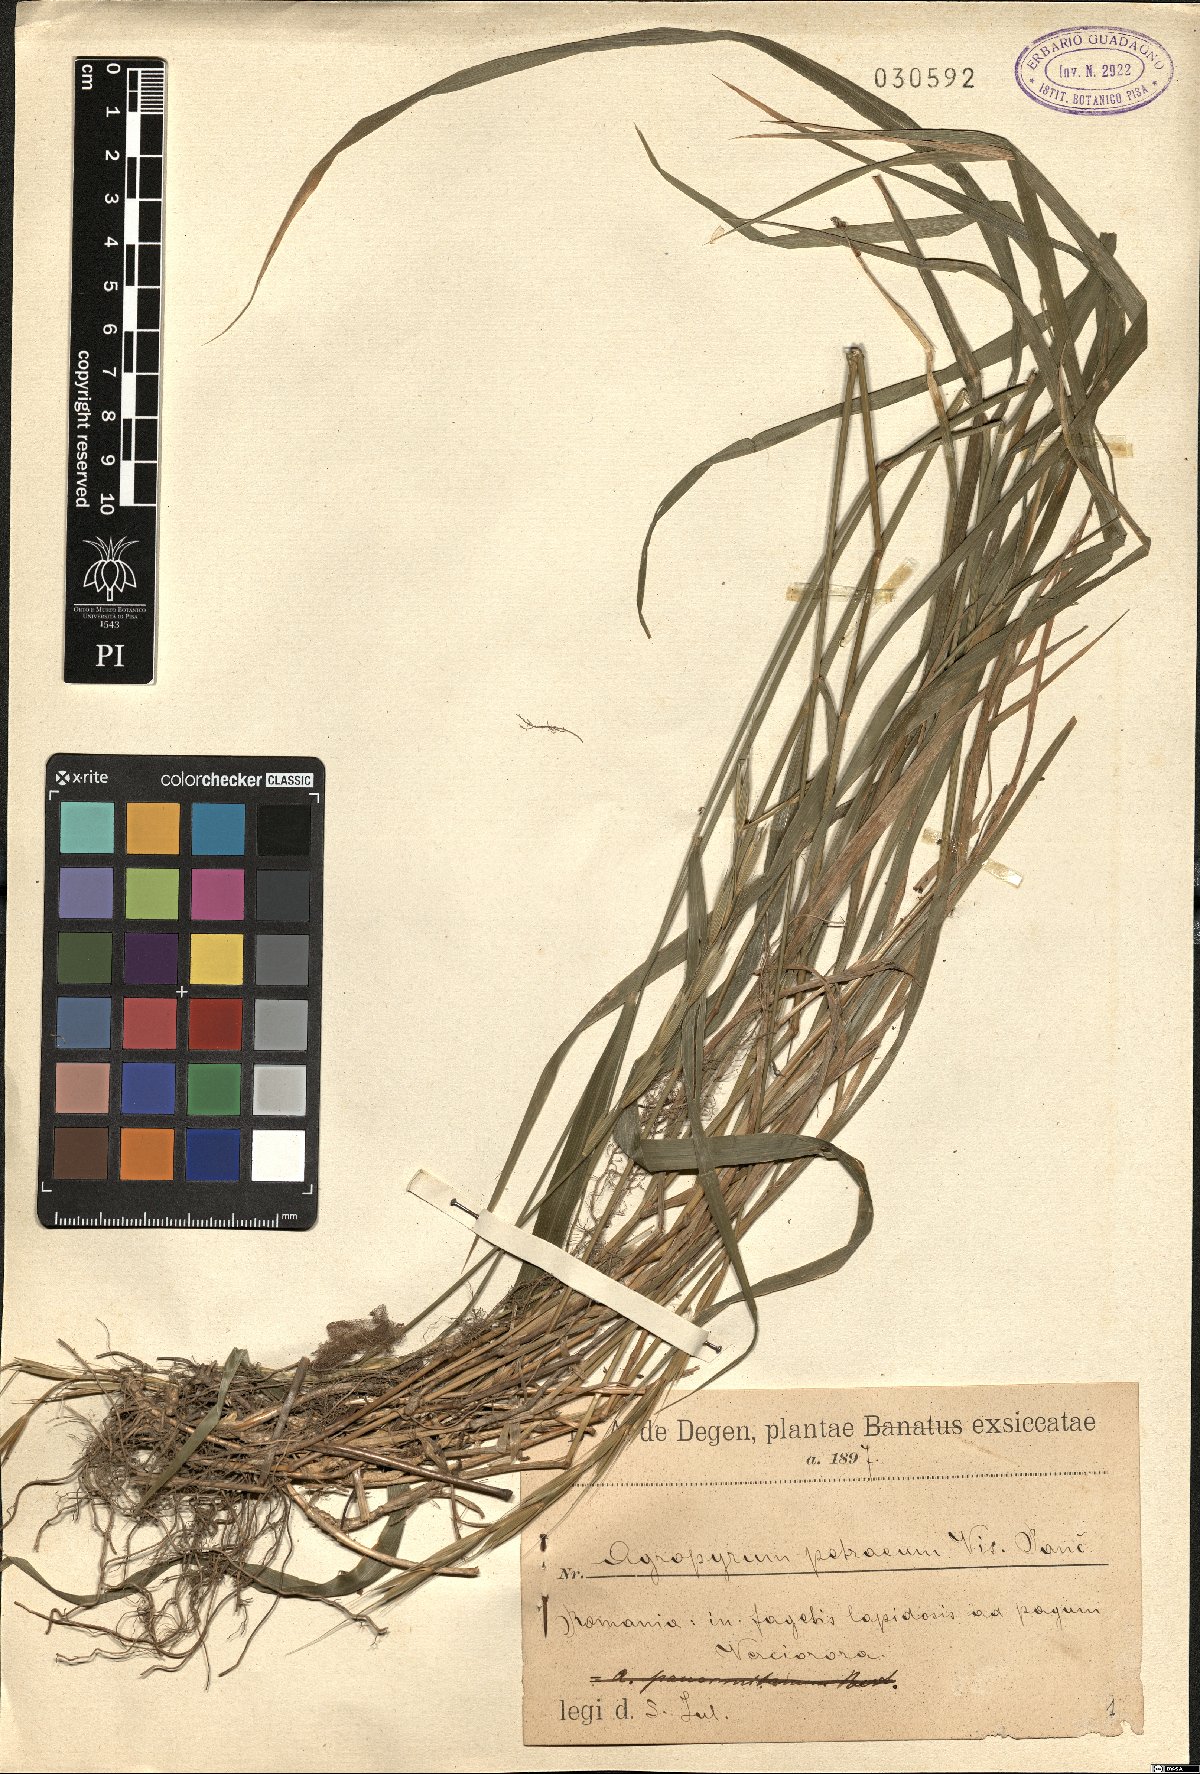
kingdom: Plantae
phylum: Tracheophyta
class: Liliopsida
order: Poales
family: Poaceae
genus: Elymus
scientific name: Elymus panormitanus
